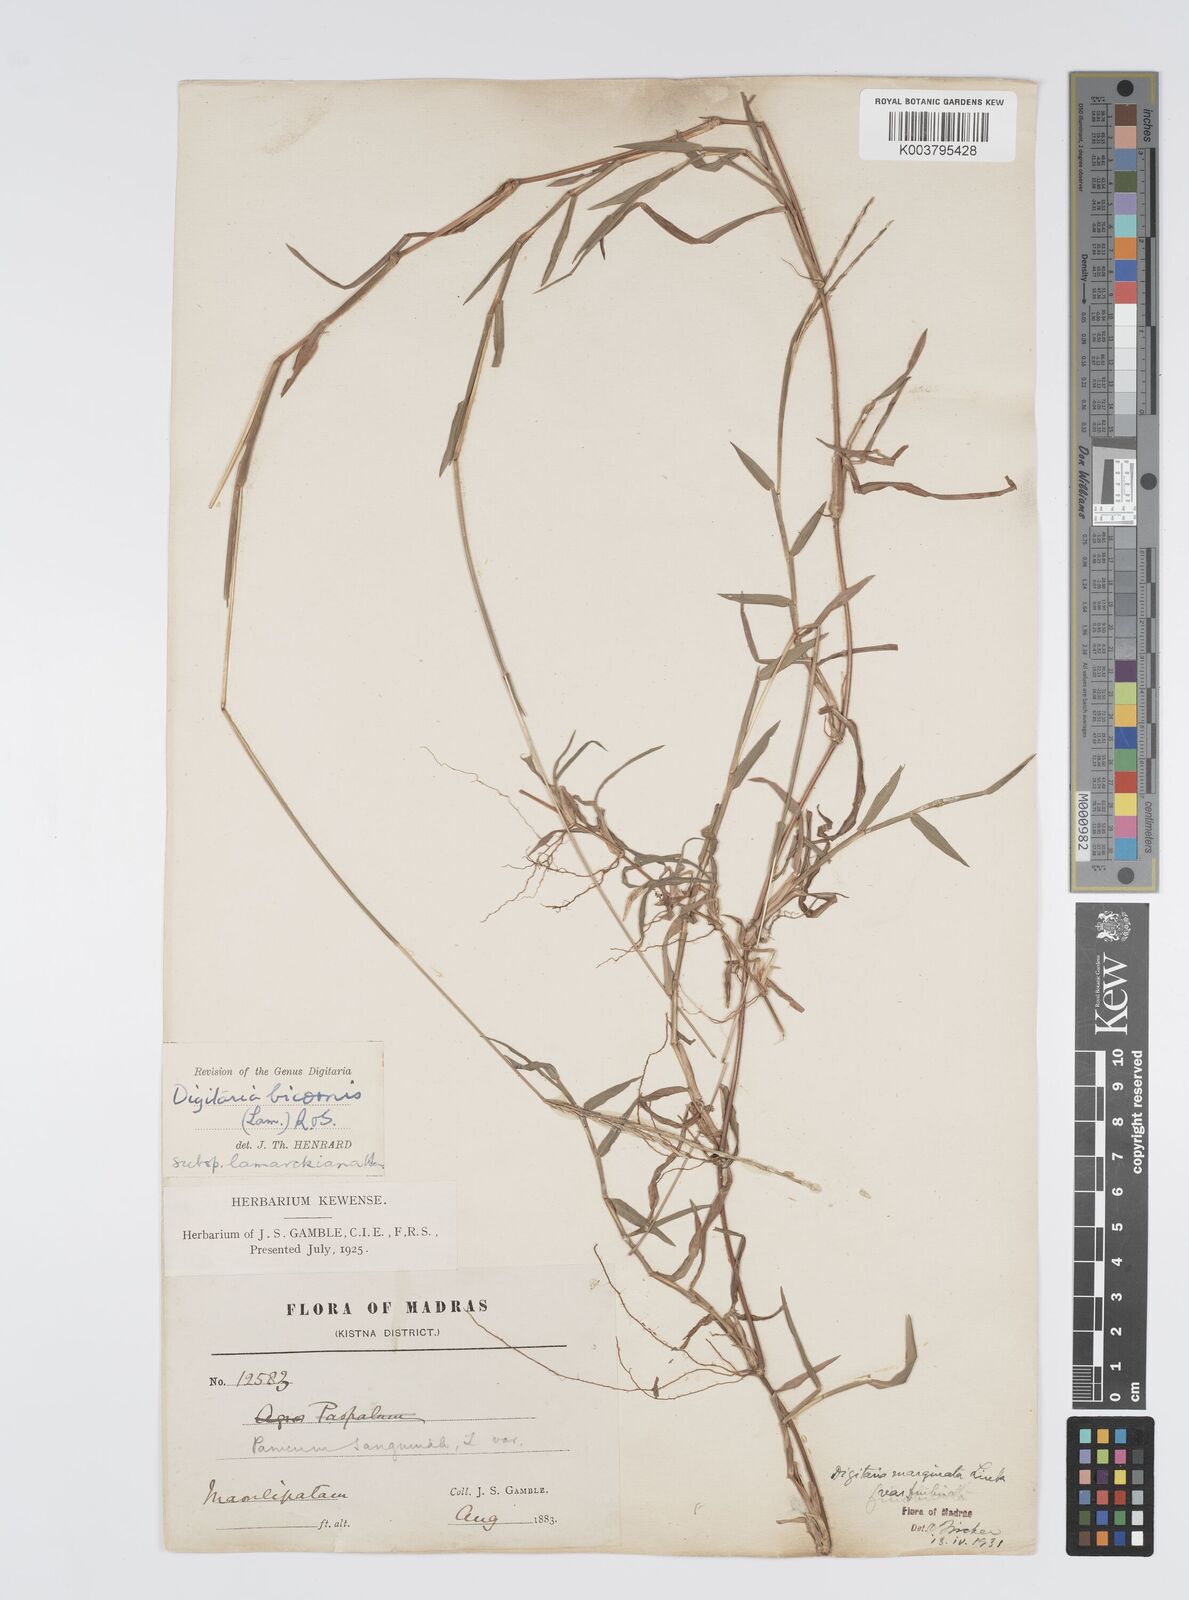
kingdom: Plantae
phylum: Tracheophyta
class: Liliopsida
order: Poales
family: Poaceae
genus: Digitaria
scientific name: Digitaria bicornis
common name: Asian crabgrass
